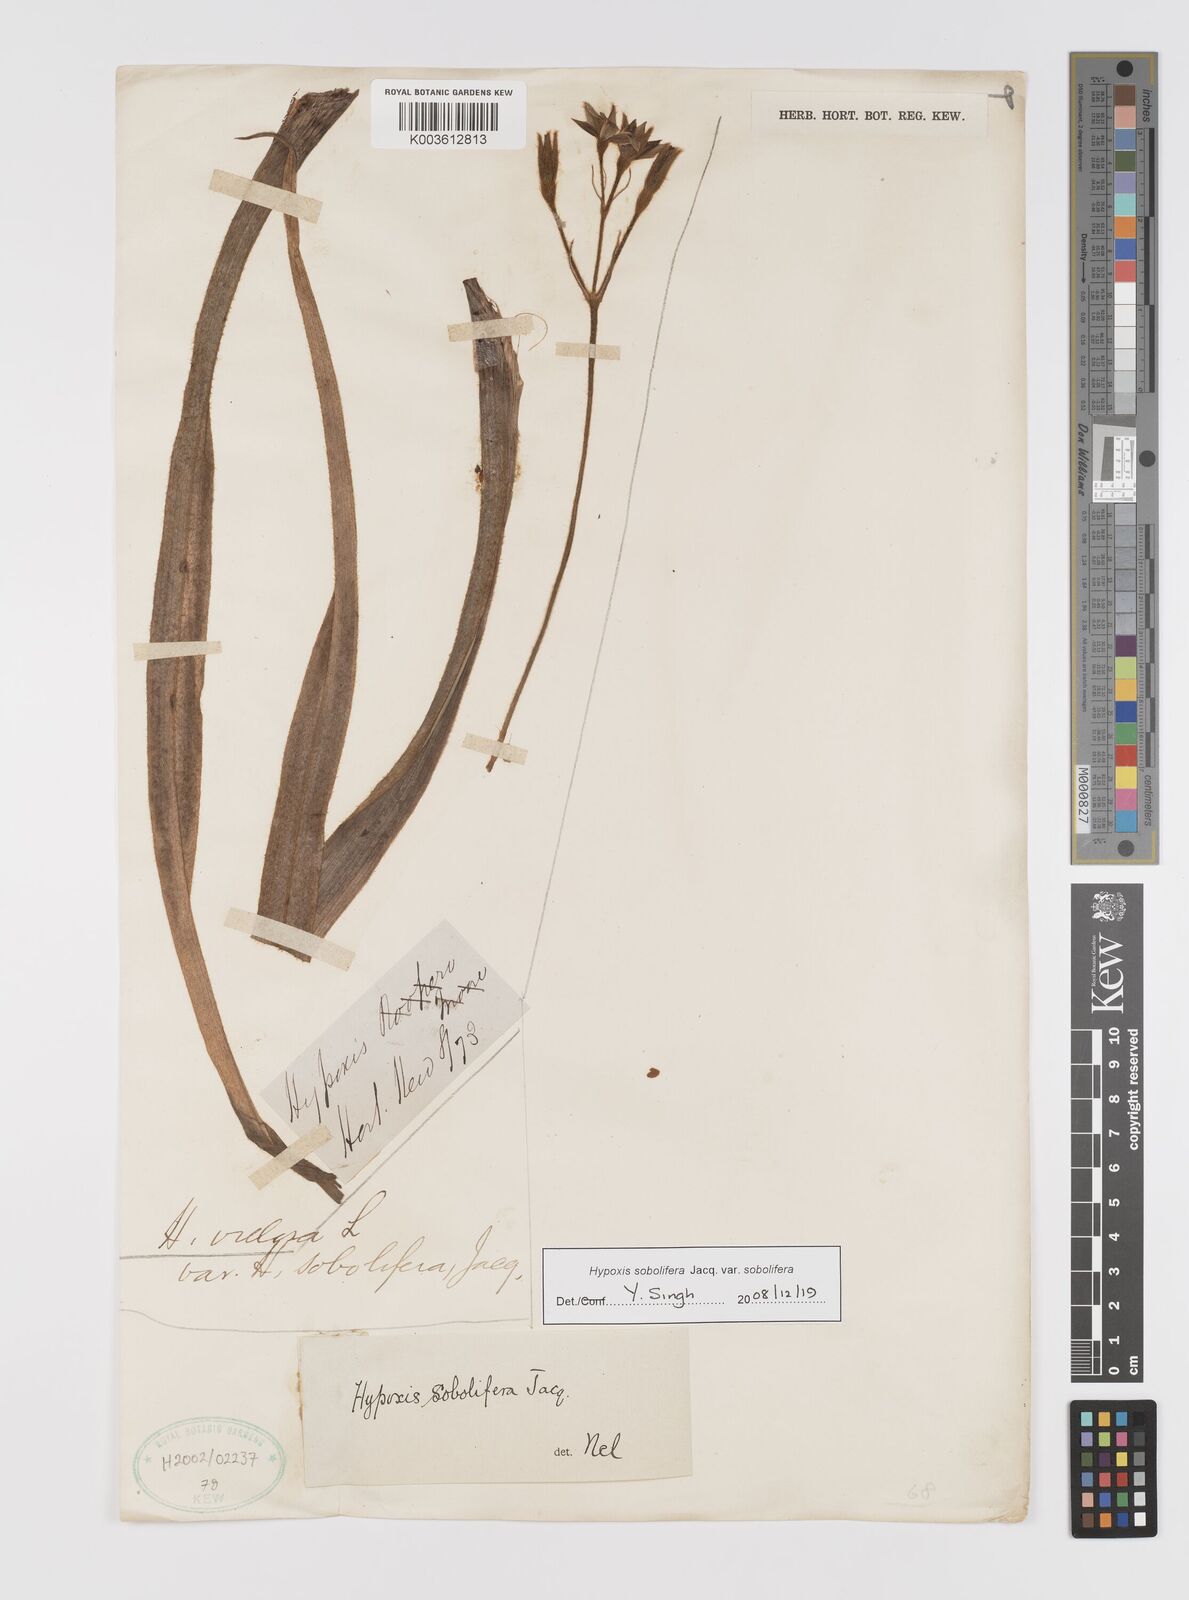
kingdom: Plantae
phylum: Tracheophyta
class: Liliopsida
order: Asparagales
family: Hypoxidaceae
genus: Hypoxis
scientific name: Hypoxis sobolifera
